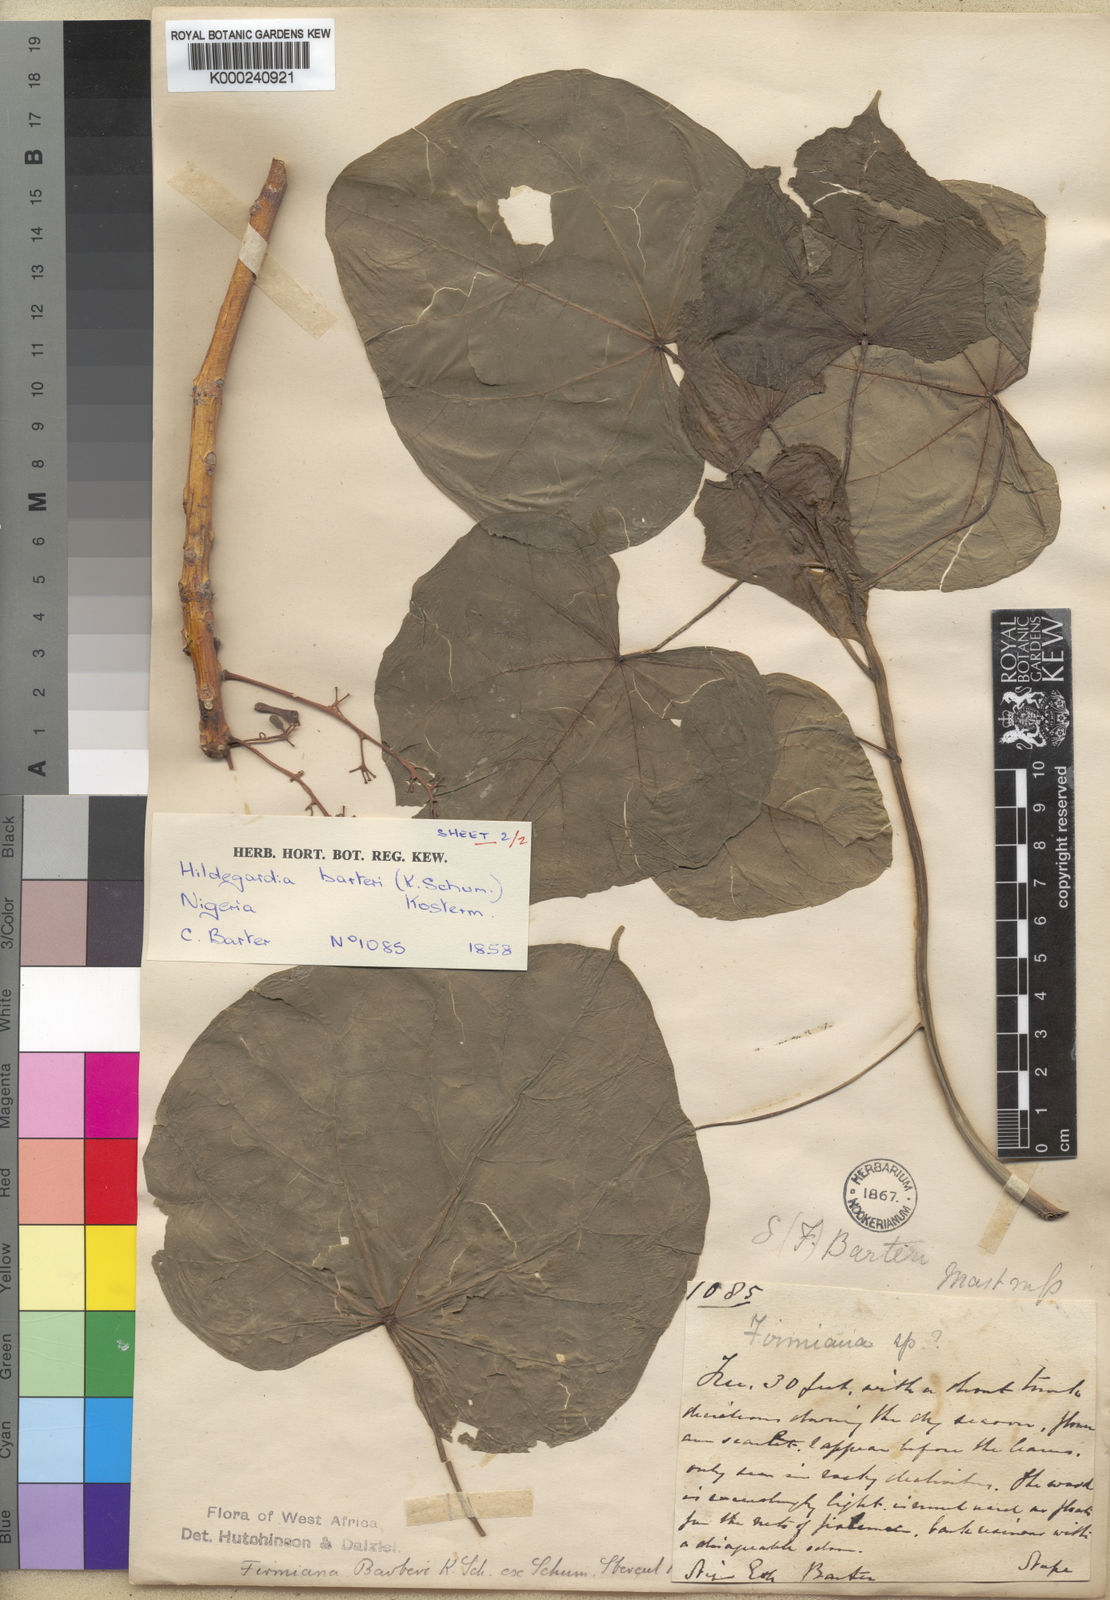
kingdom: Plantae
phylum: Tracheophyta
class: Magnoliopsida
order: Malvales
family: Malvaceae
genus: Hildegardia
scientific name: Hildegardia barteri
